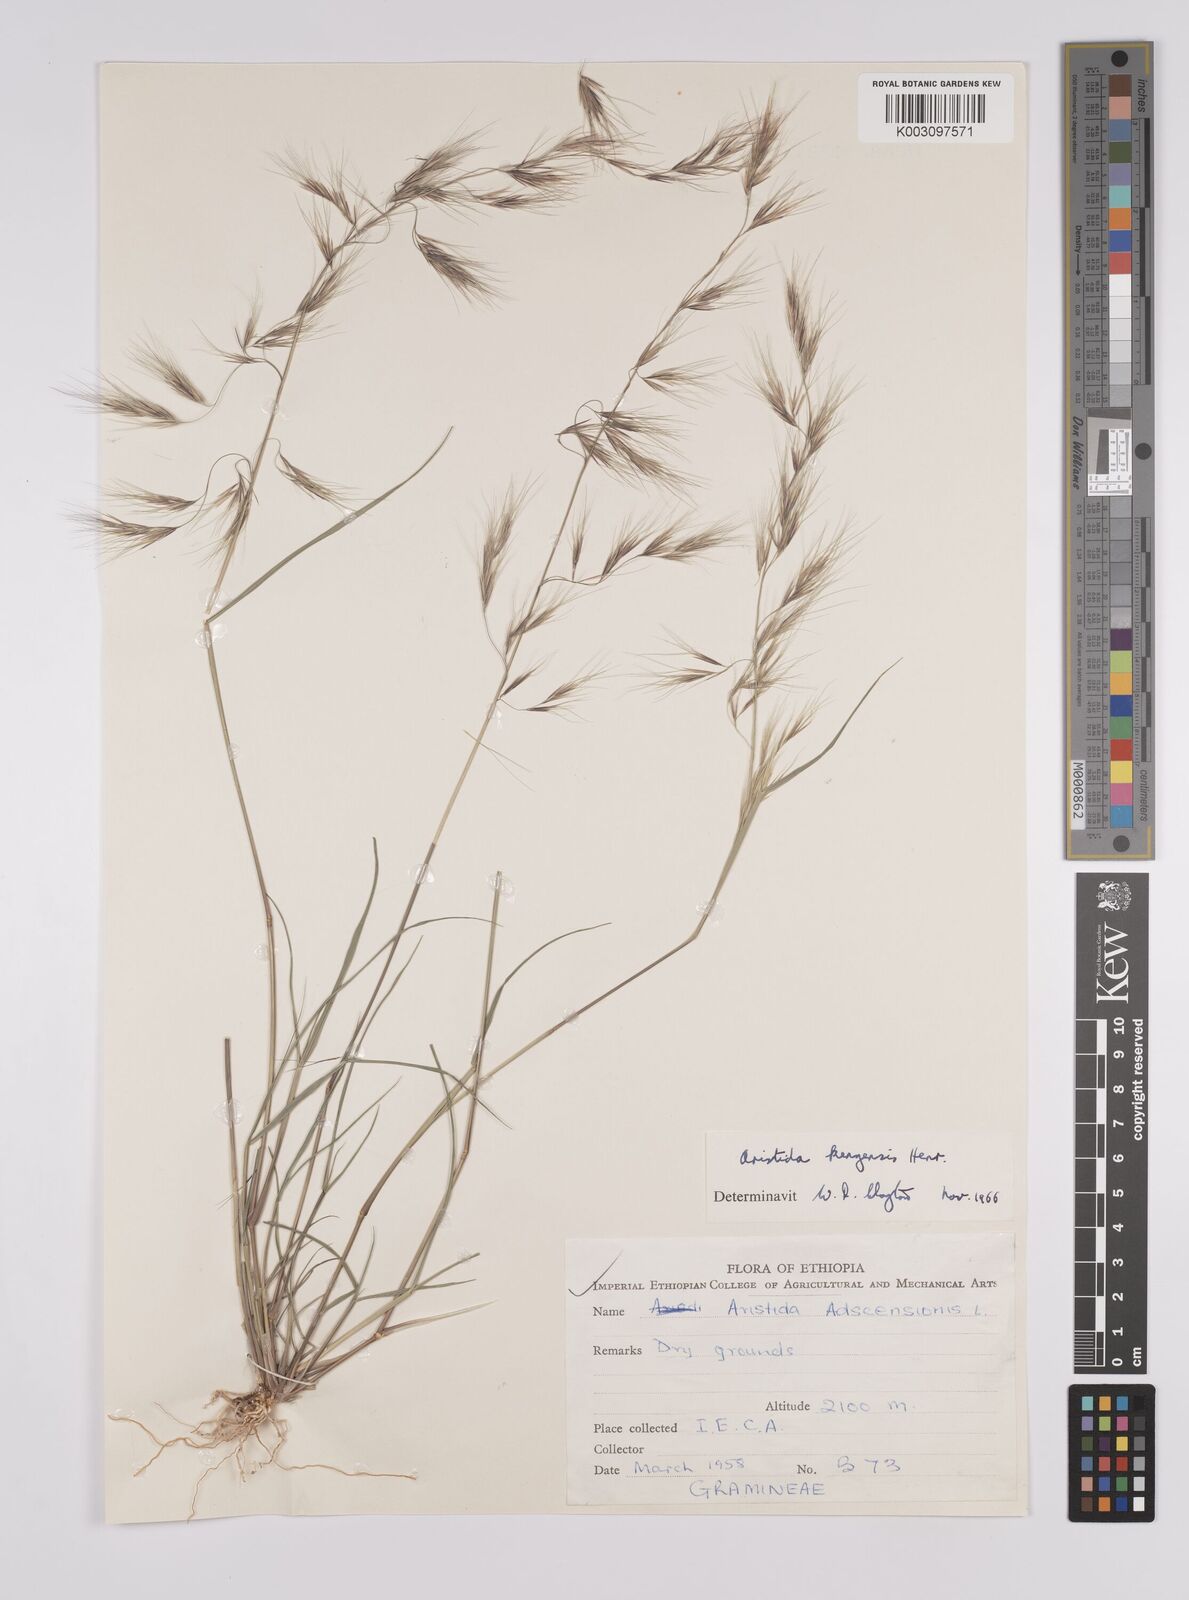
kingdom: Plantae
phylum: Tracheophyta
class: Liliopsida
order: Poales
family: Poaceae
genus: Aristida
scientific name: Aristida kenyensis
